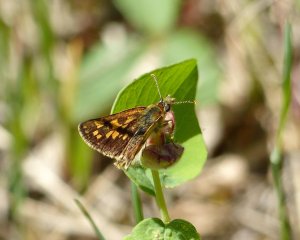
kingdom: Animalia
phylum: Arthropoda
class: Insecta
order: Lepidoptera
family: Hesperiidae
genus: Carterocephalus
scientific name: Carterocephalus palaemon
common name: Chequered Skipper
